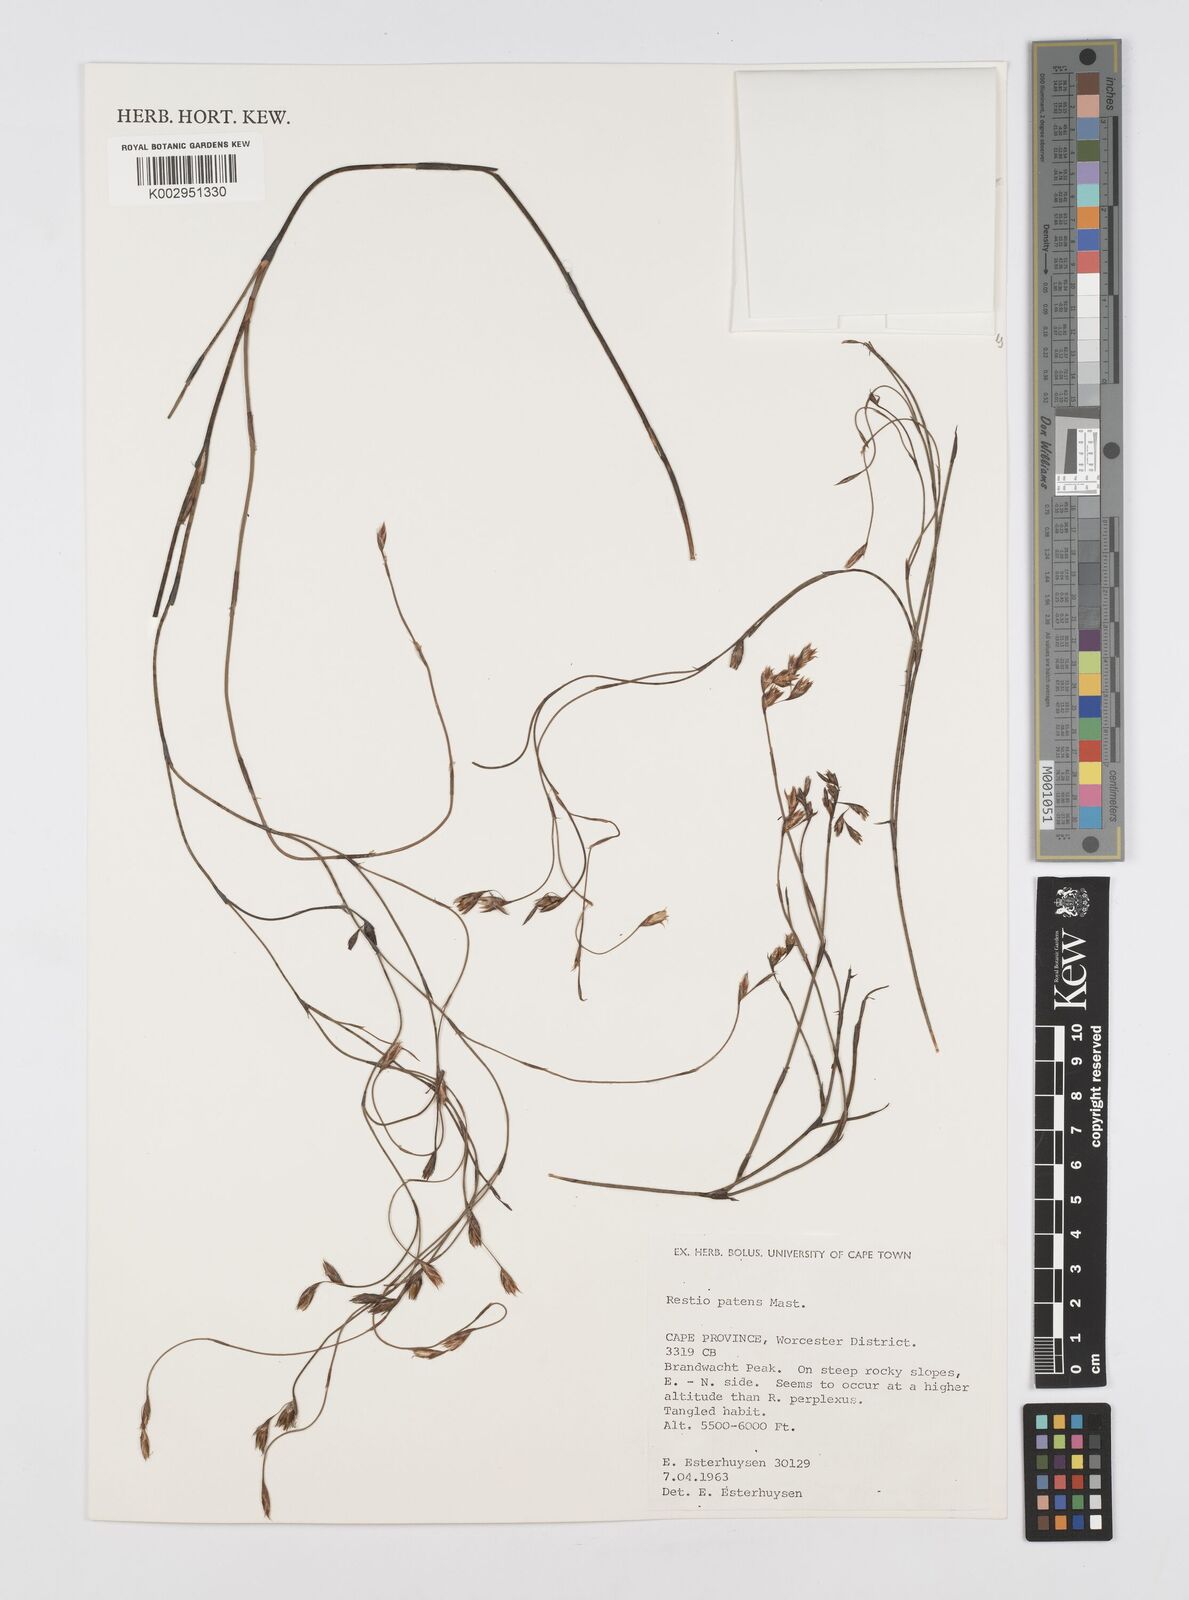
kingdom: Plantae
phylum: Tracheophyta
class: Liliopsida
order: Poales
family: Restionaceae
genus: Restio
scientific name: Restio patens
